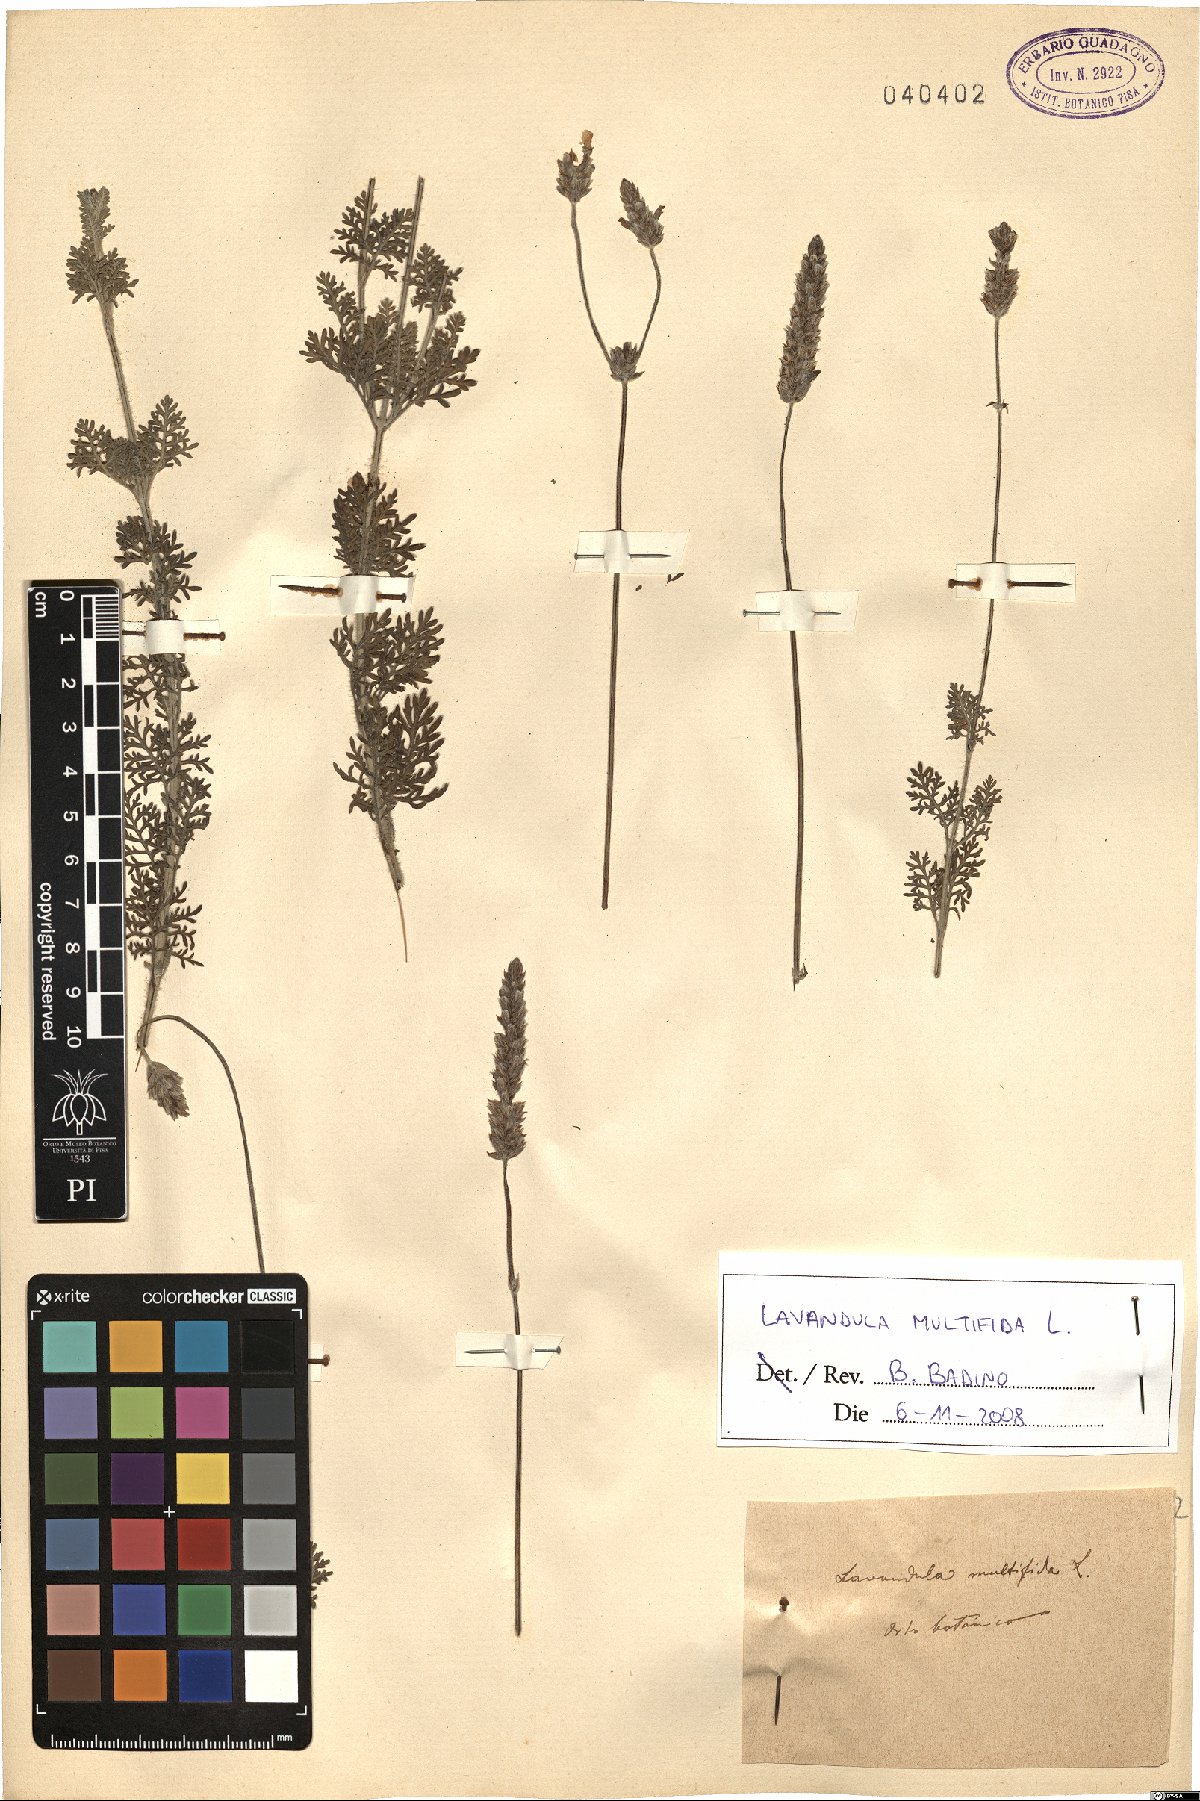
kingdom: Plantae
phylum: Tracheophyta
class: Magnoliopsida
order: Lamiales
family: Lamiaceae
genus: Lavandula
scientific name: Lavandula multifida
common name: Fern-leaf lavender
